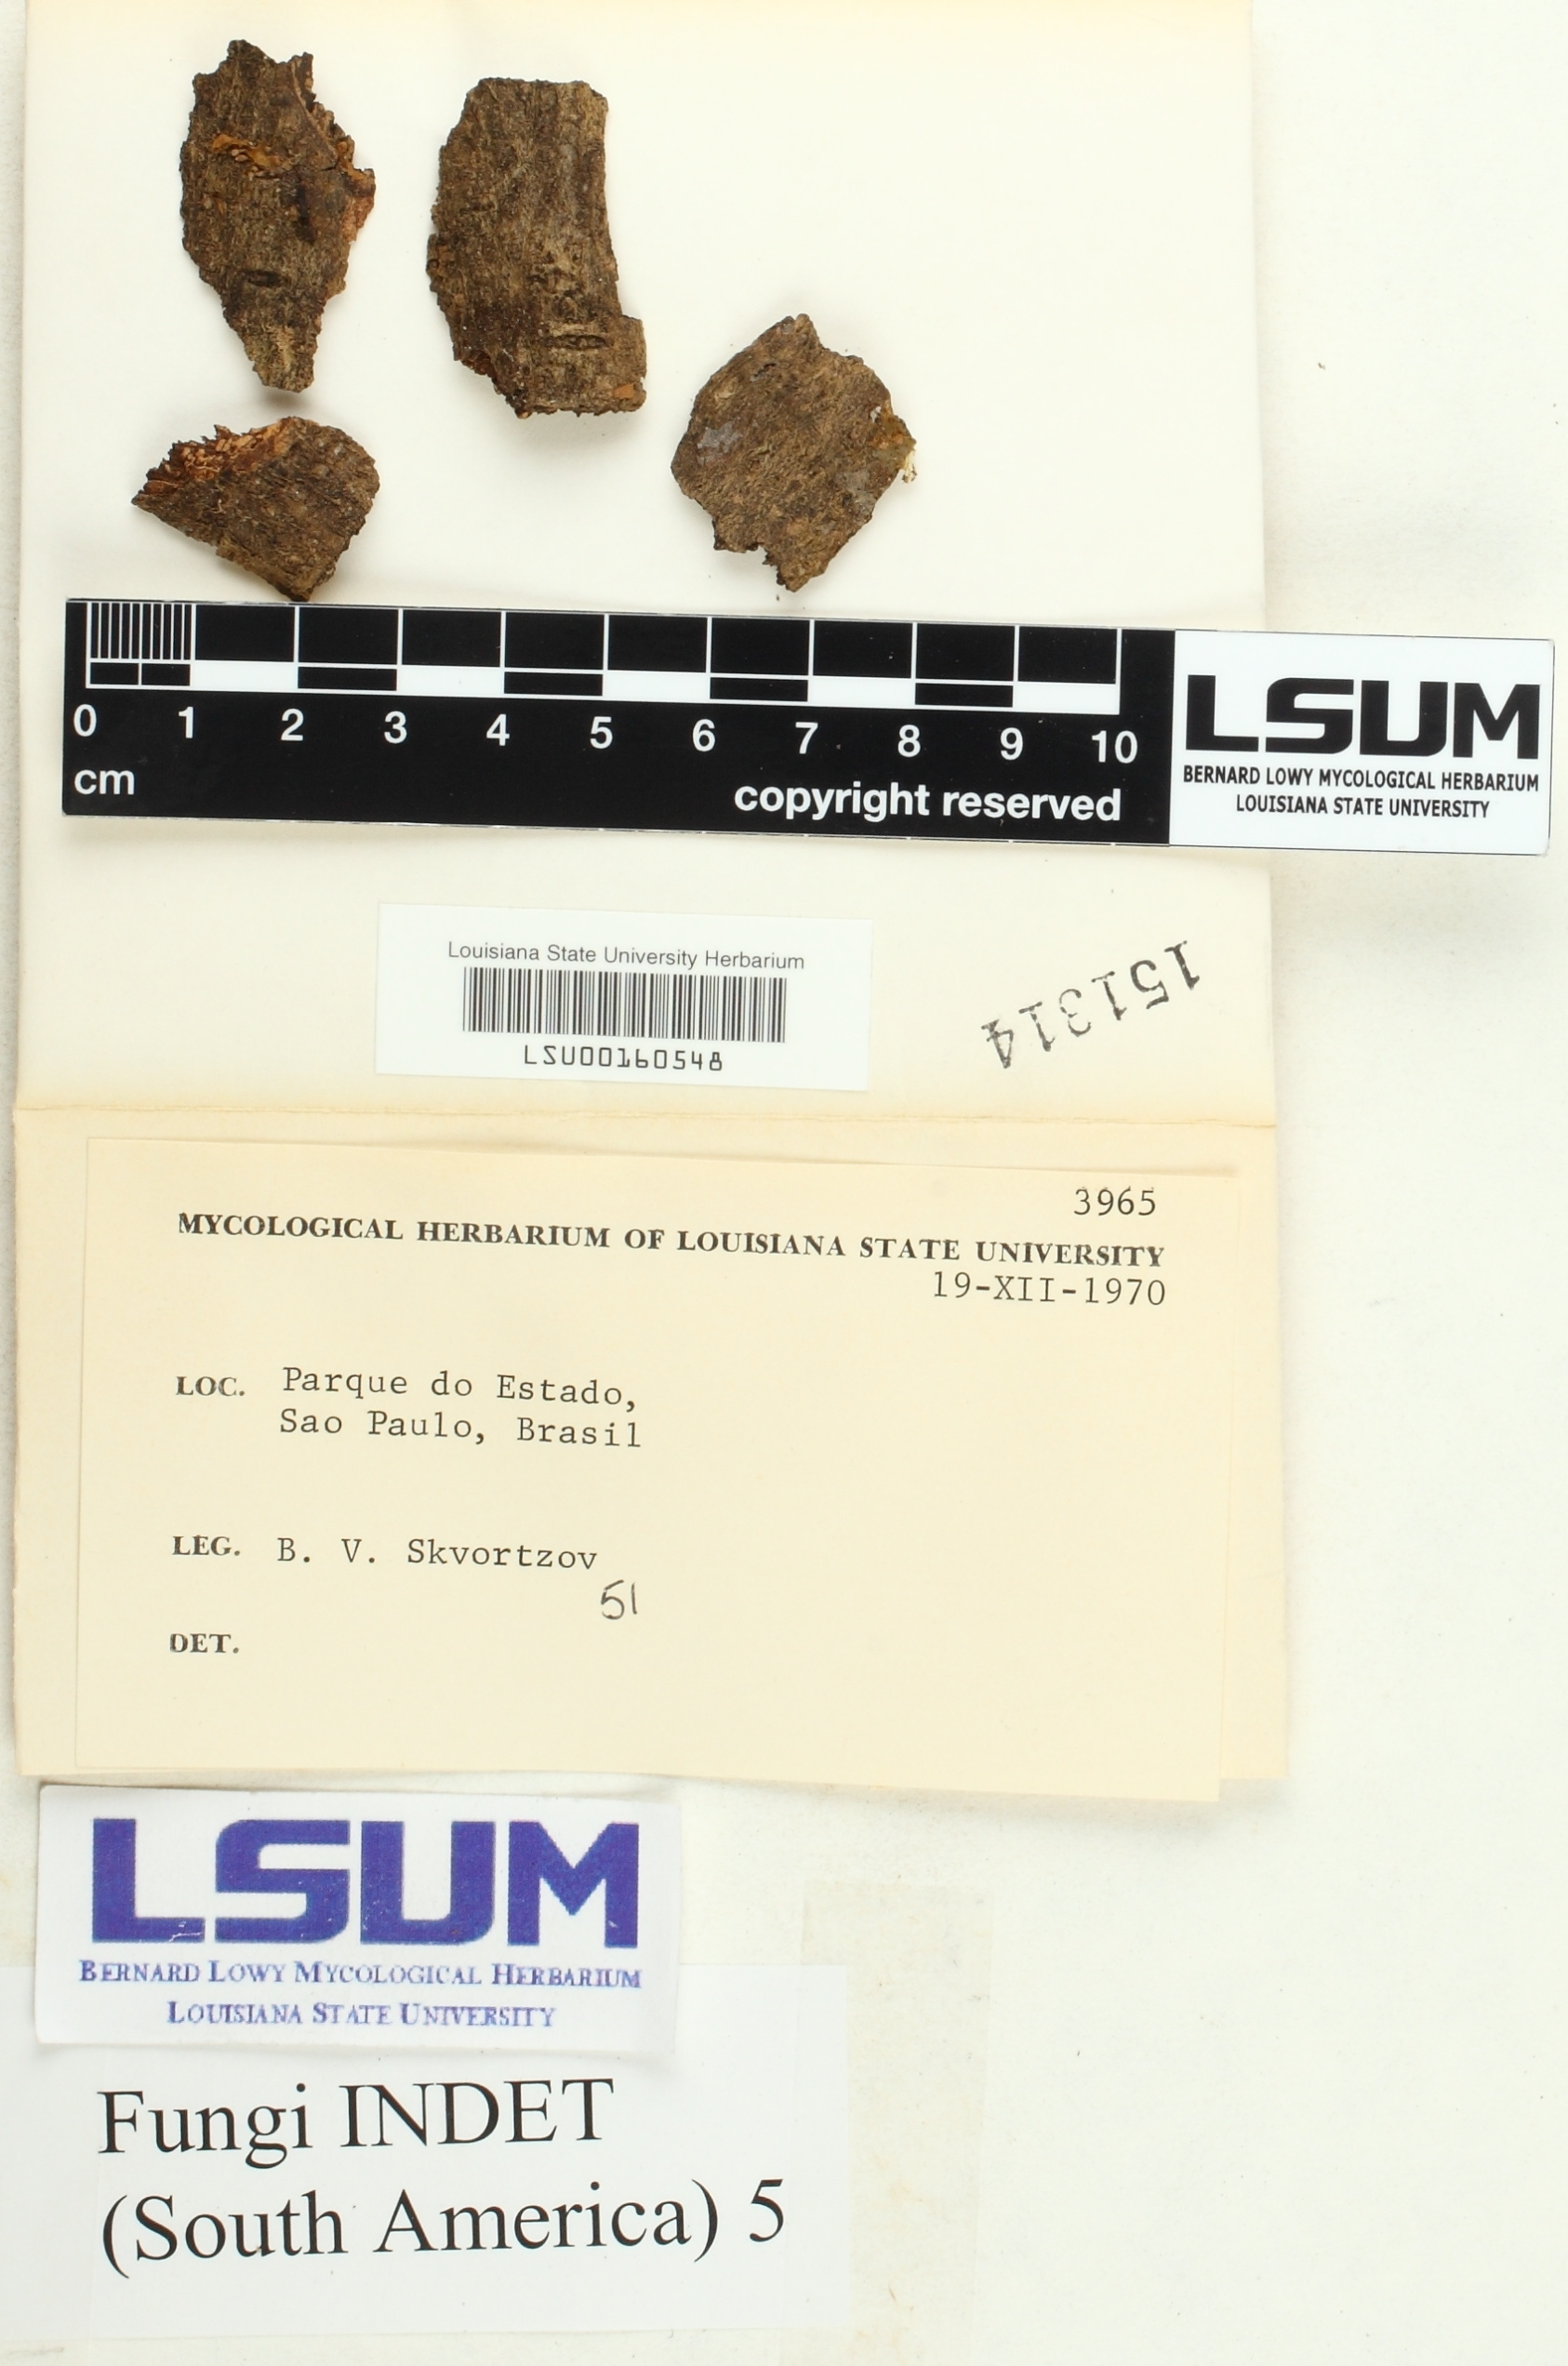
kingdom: Fungi
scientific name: Fungi
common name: Fungi
